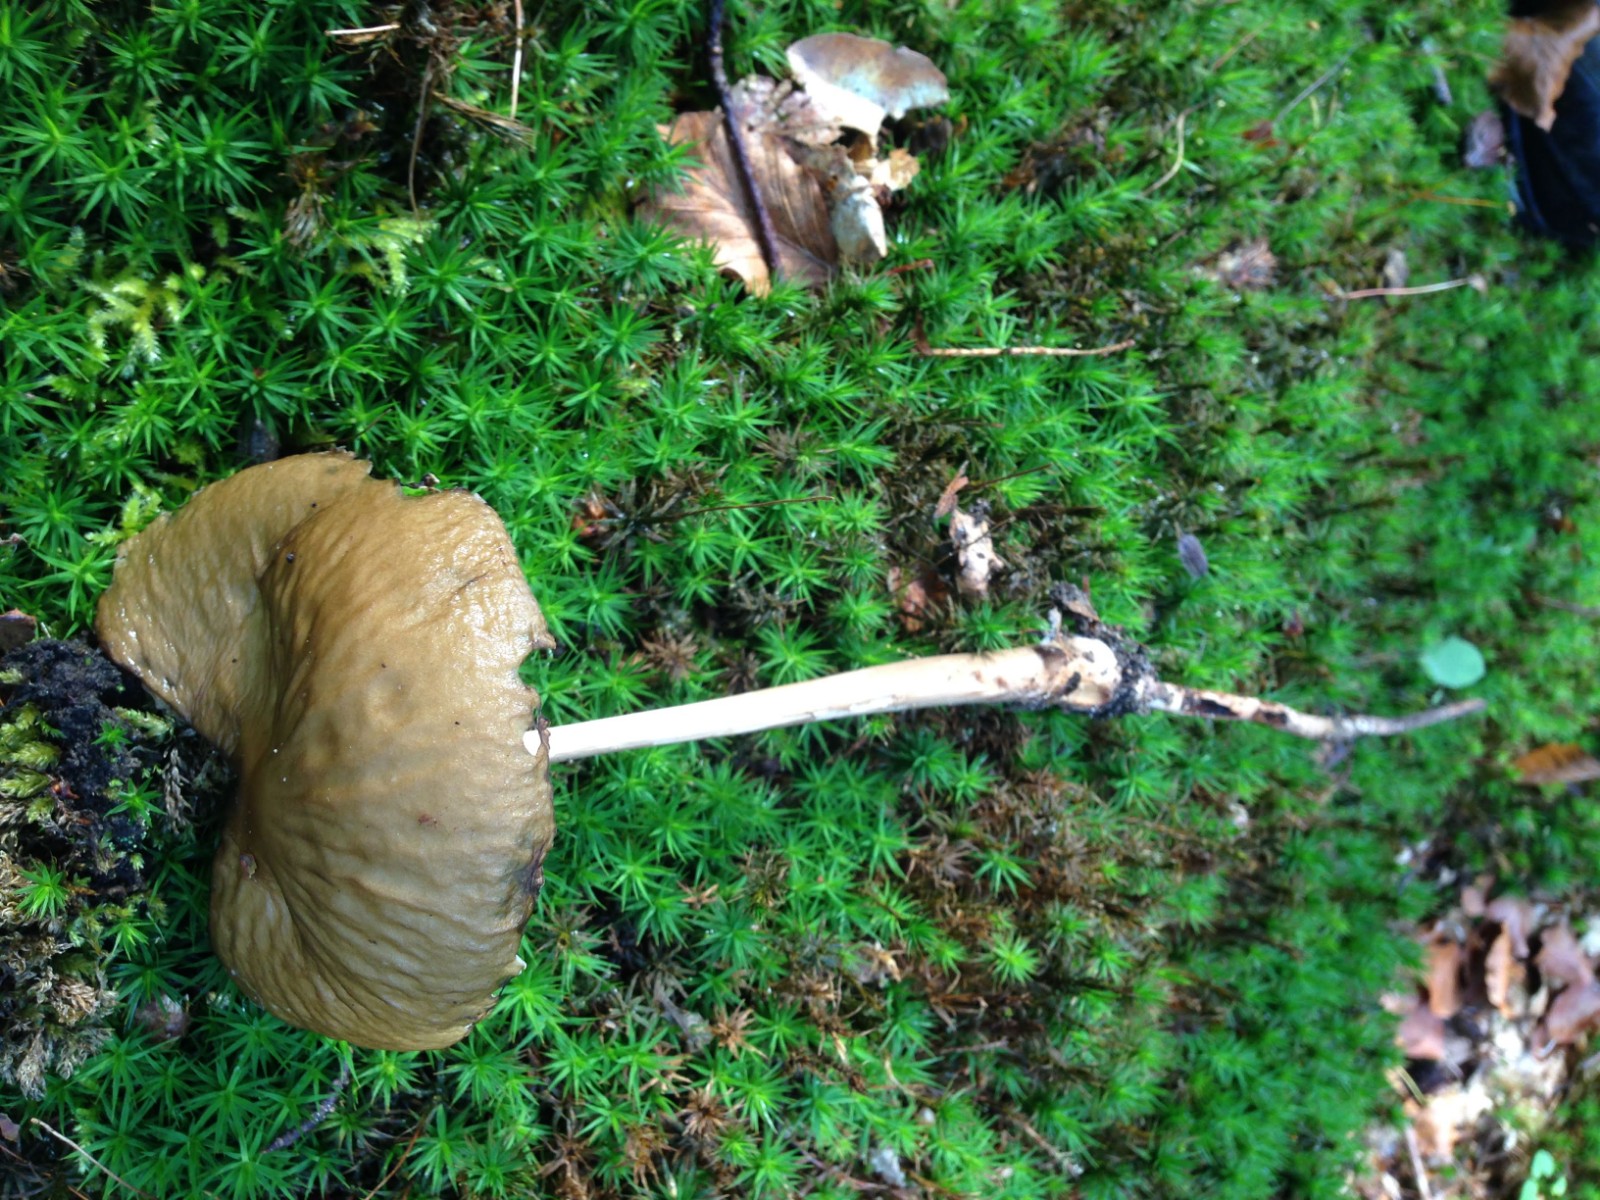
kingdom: Fungi
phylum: Basidiomycota
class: Agaricomycetes
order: Agaricales
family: Physalacriaceae
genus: Hymenopellis
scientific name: Hymenopellis radicata
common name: almindelig pælerodshat
